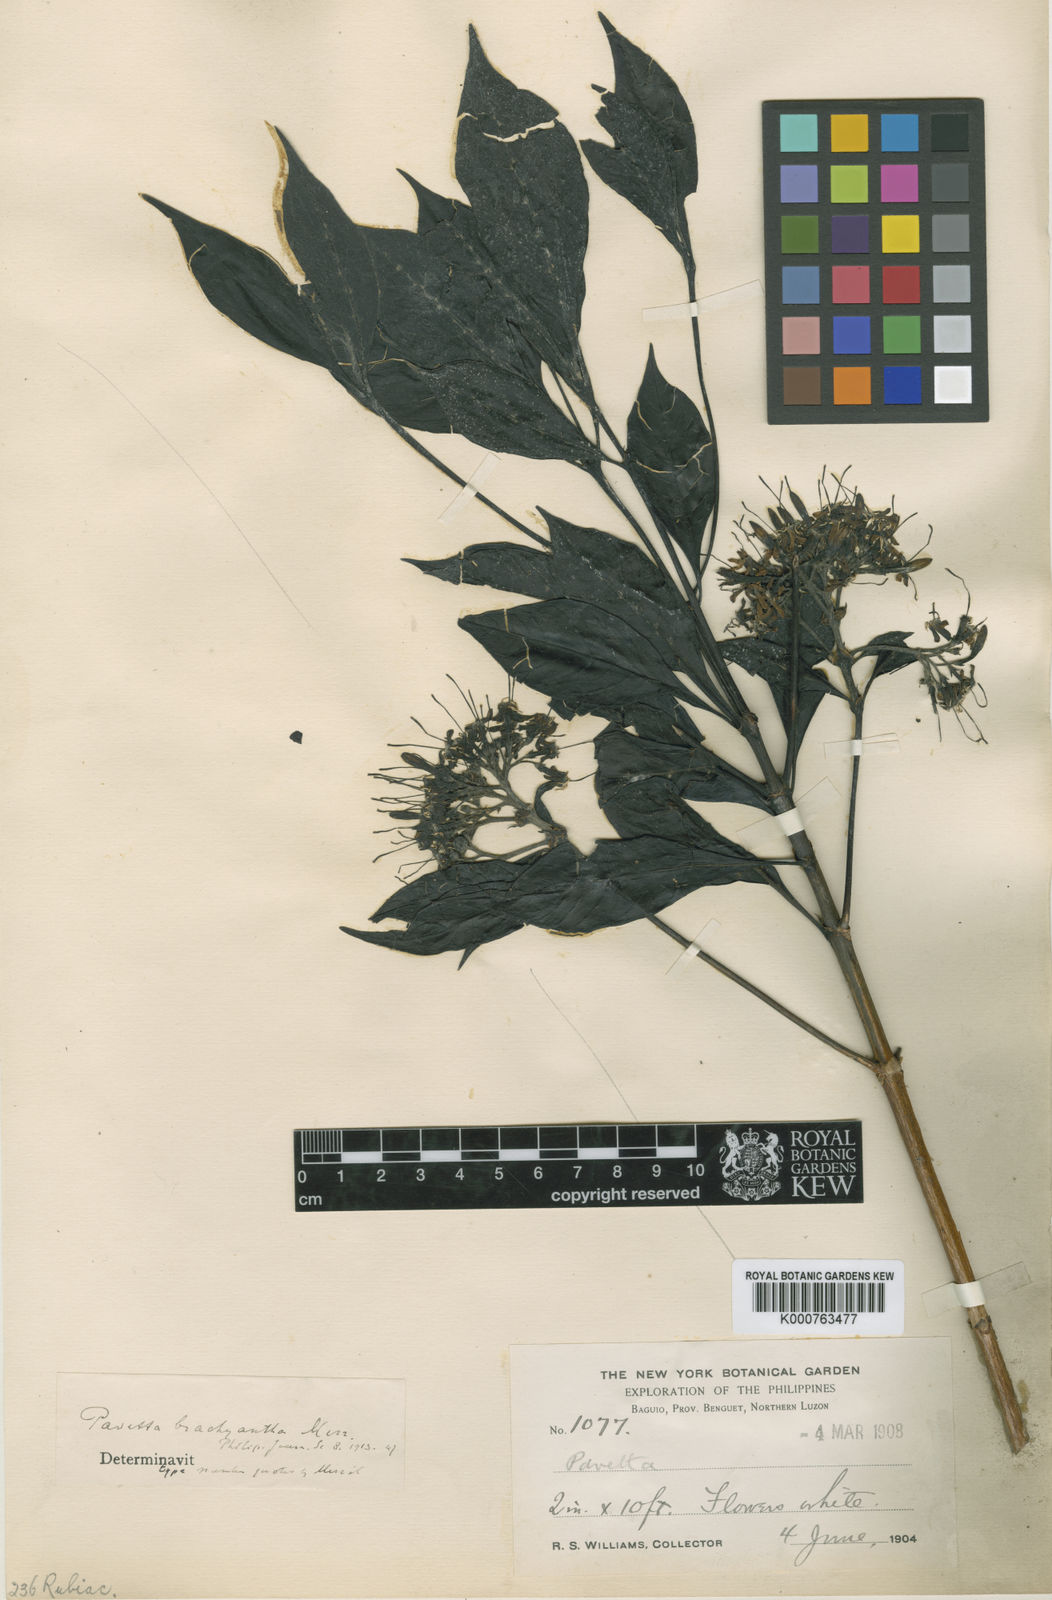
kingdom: Plantae
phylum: Tracheophyta
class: Magnoliopsida
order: Gentianales
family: Rubiaceae
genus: Pavetta
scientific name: Pavetta brachyantha
